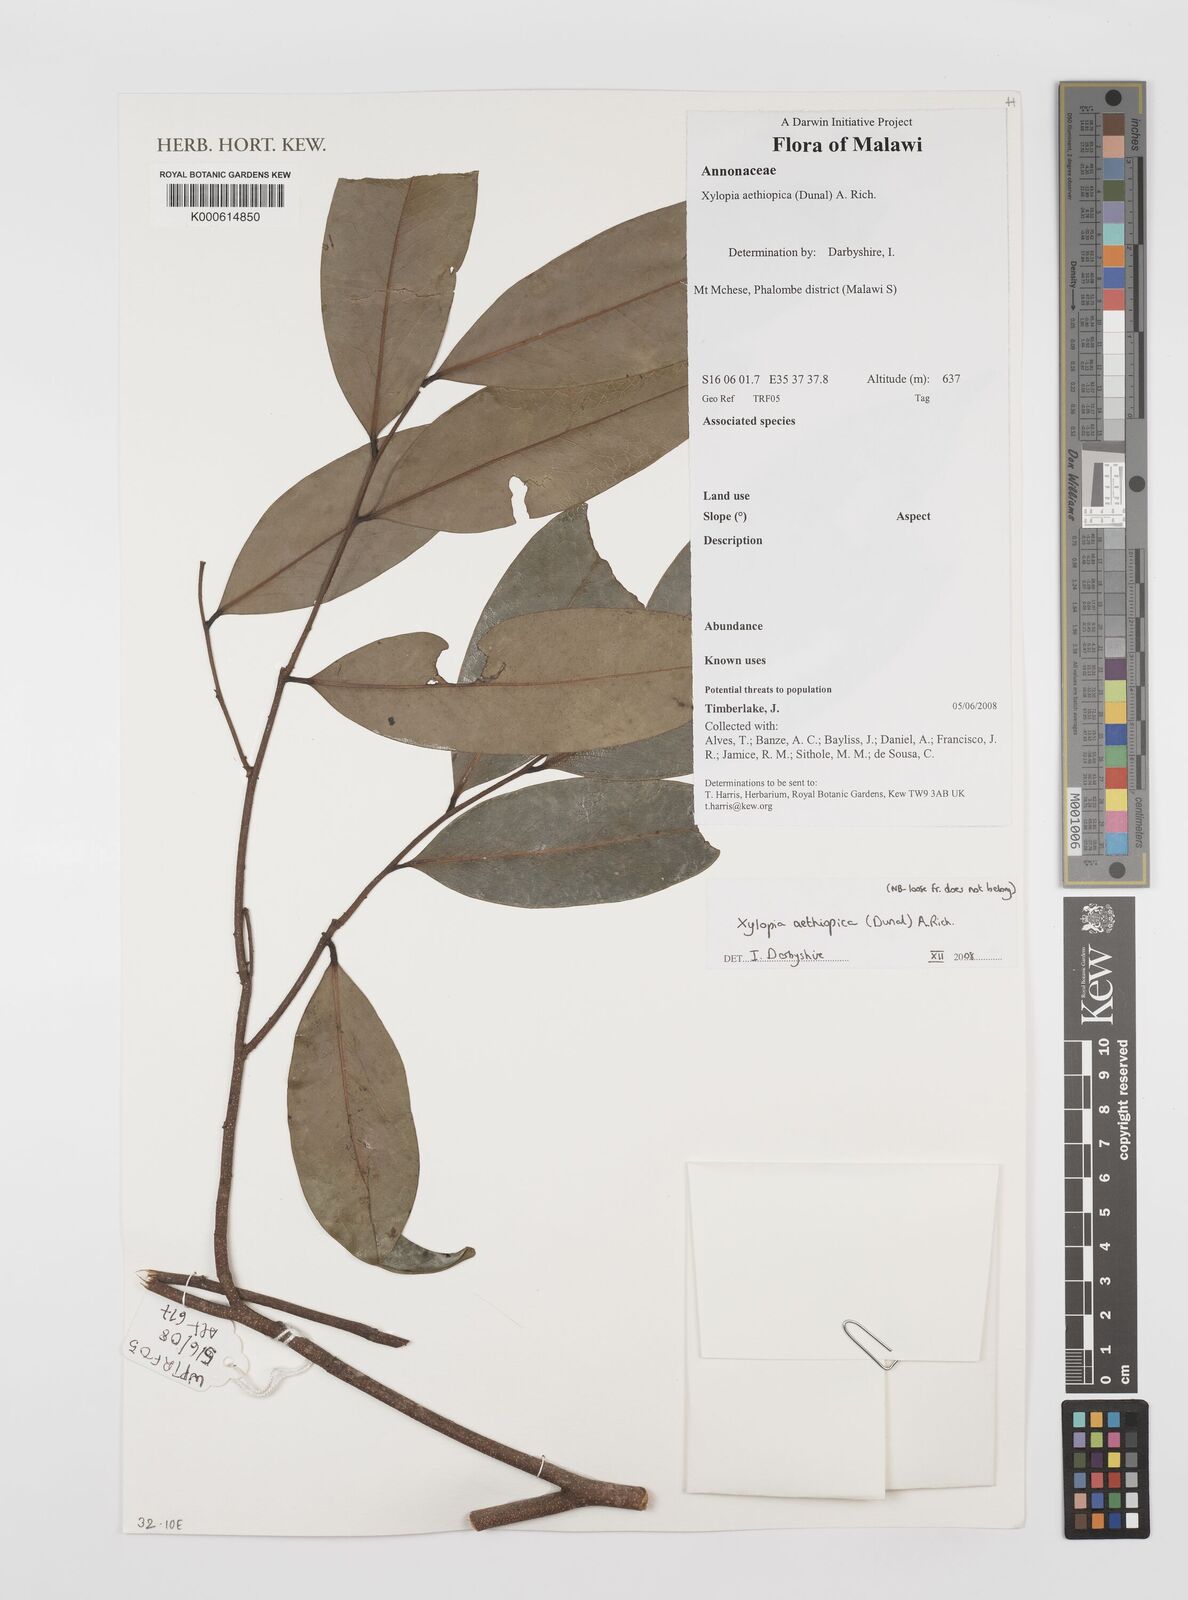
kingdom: Plantae
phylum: Tracheophyta
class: Magnoliopsida
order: Magnoliales
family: Annonaceae
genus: Xylopia
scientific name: Xylopia aethiopica
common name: Ethiopian-pepper
